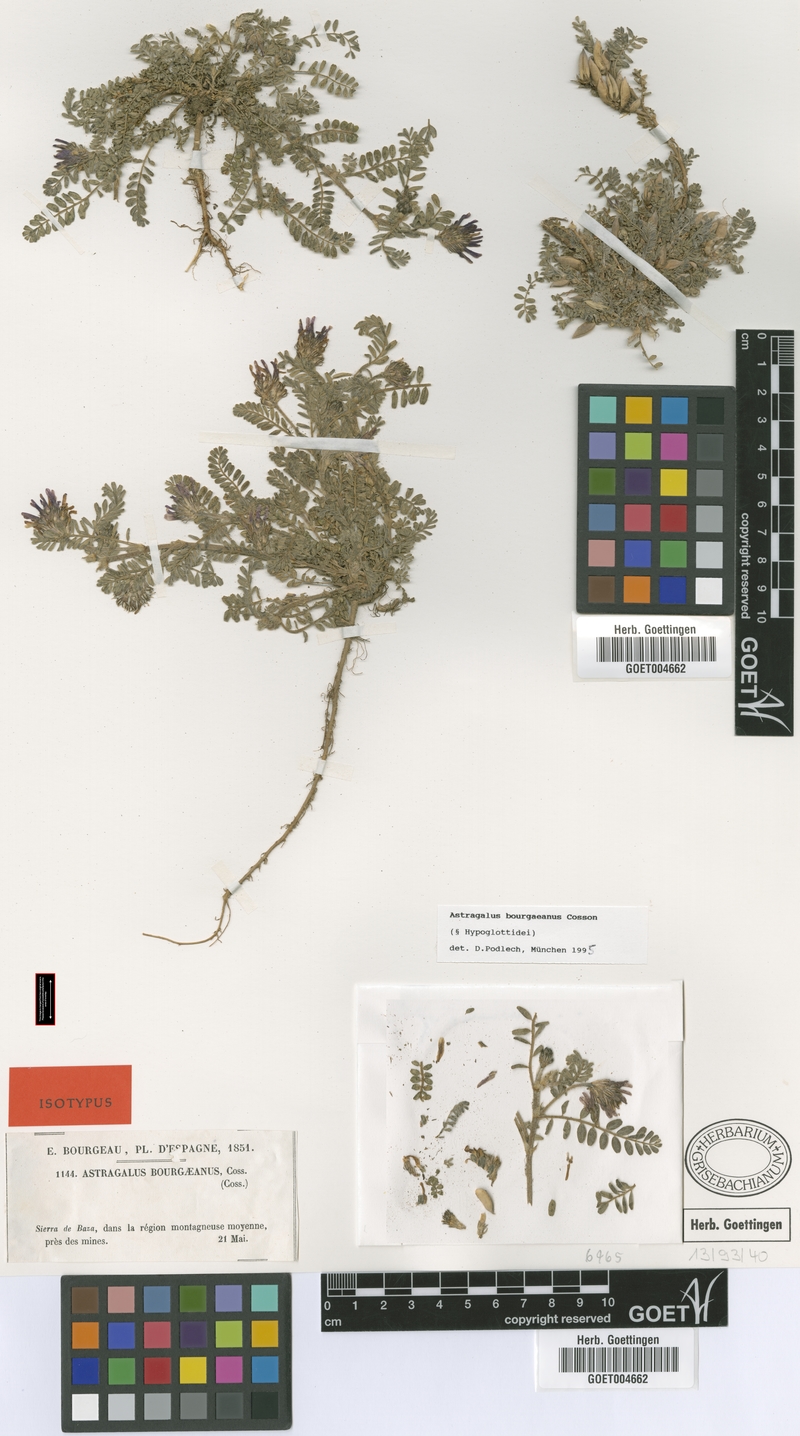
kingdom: Plantae
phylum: Tracheophyta
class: Magnoliopsida
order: Fabales
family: Fabaceae
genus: Astragalus
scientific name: Astragalus bourgaeanus
